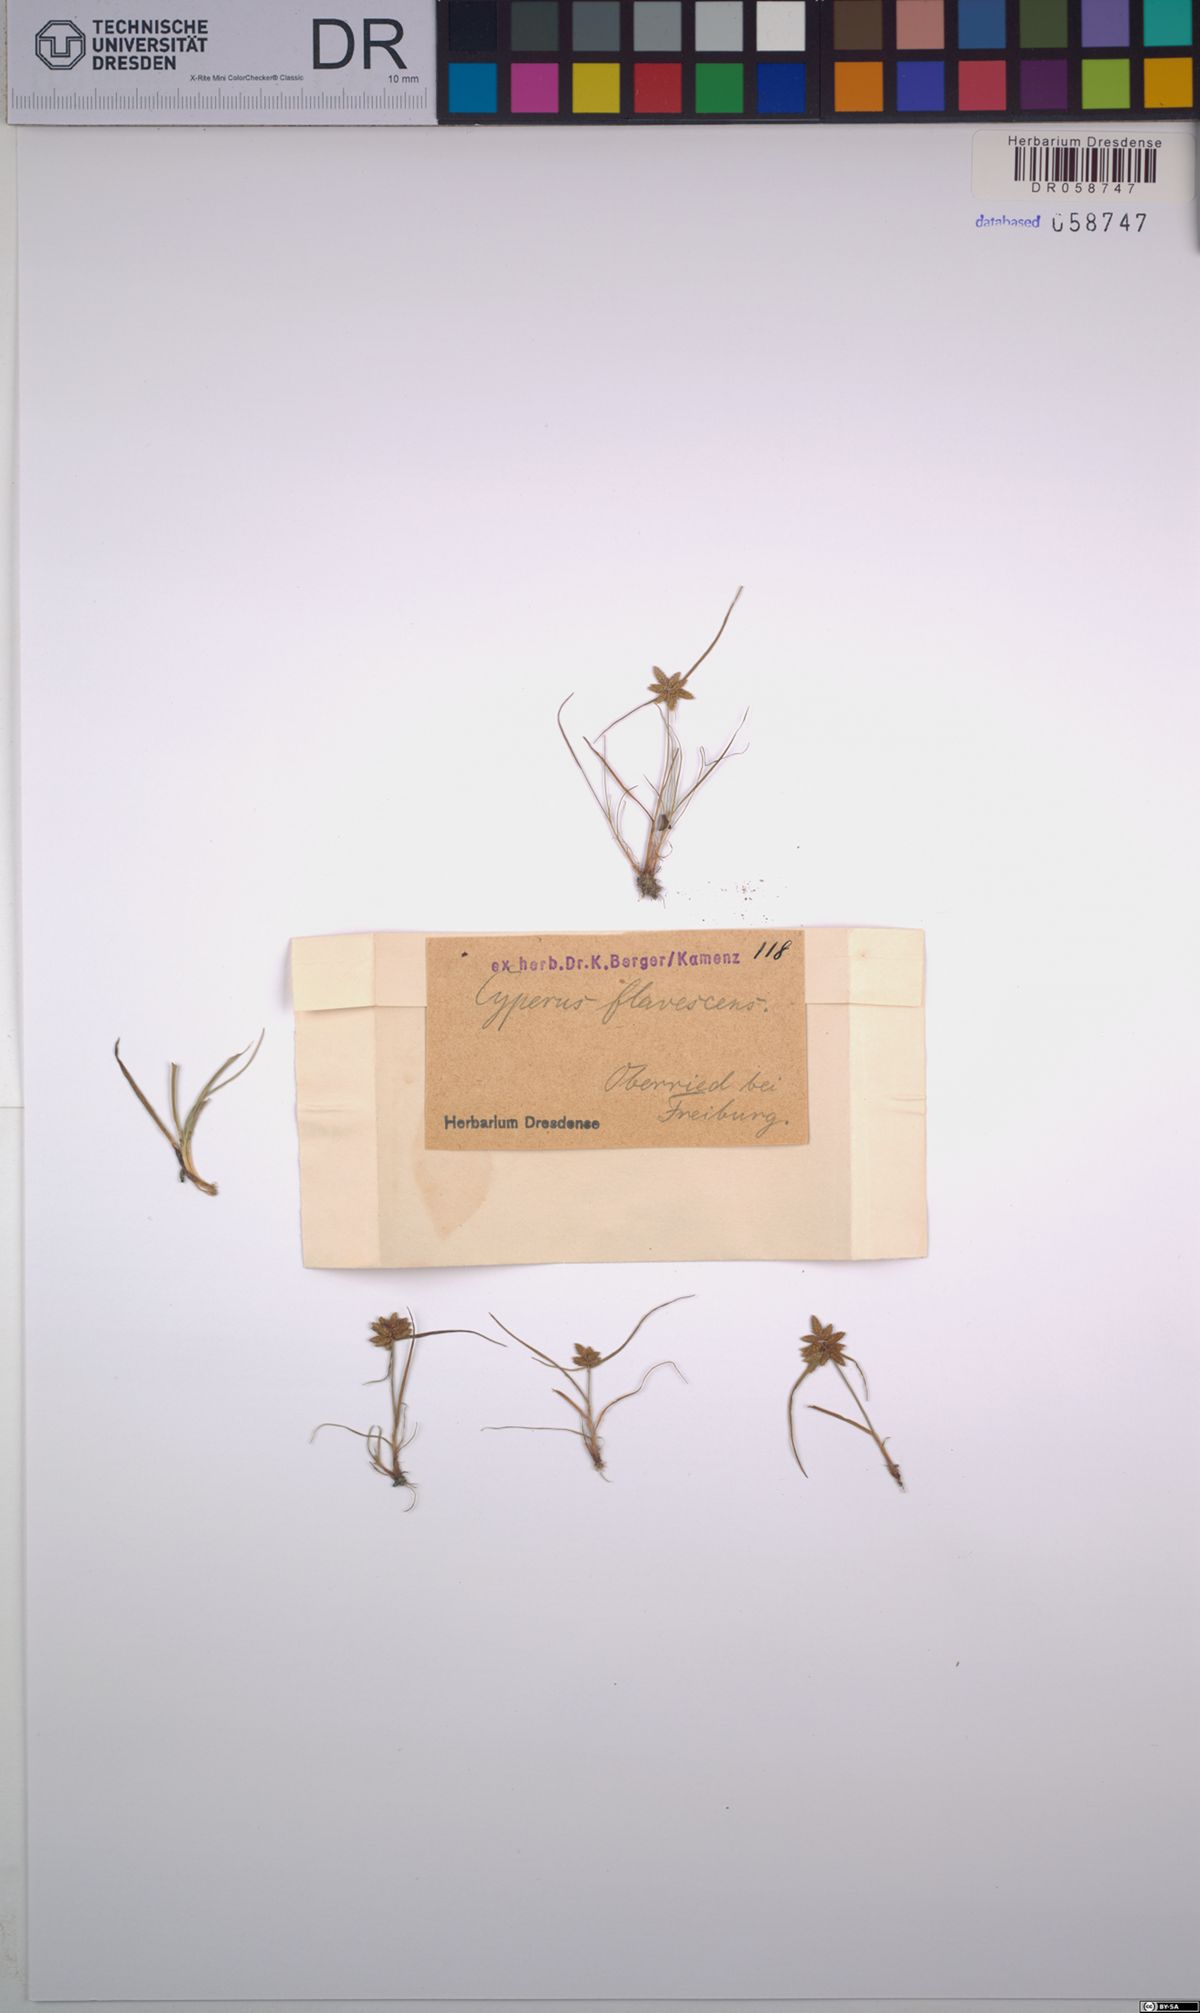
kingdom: Plantae
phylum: Tracheophyta
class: Liliopsida
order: Poales
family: Cyperaceae
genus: Cyperus
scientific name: Cyperus flavescens
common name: Yellow galingale
